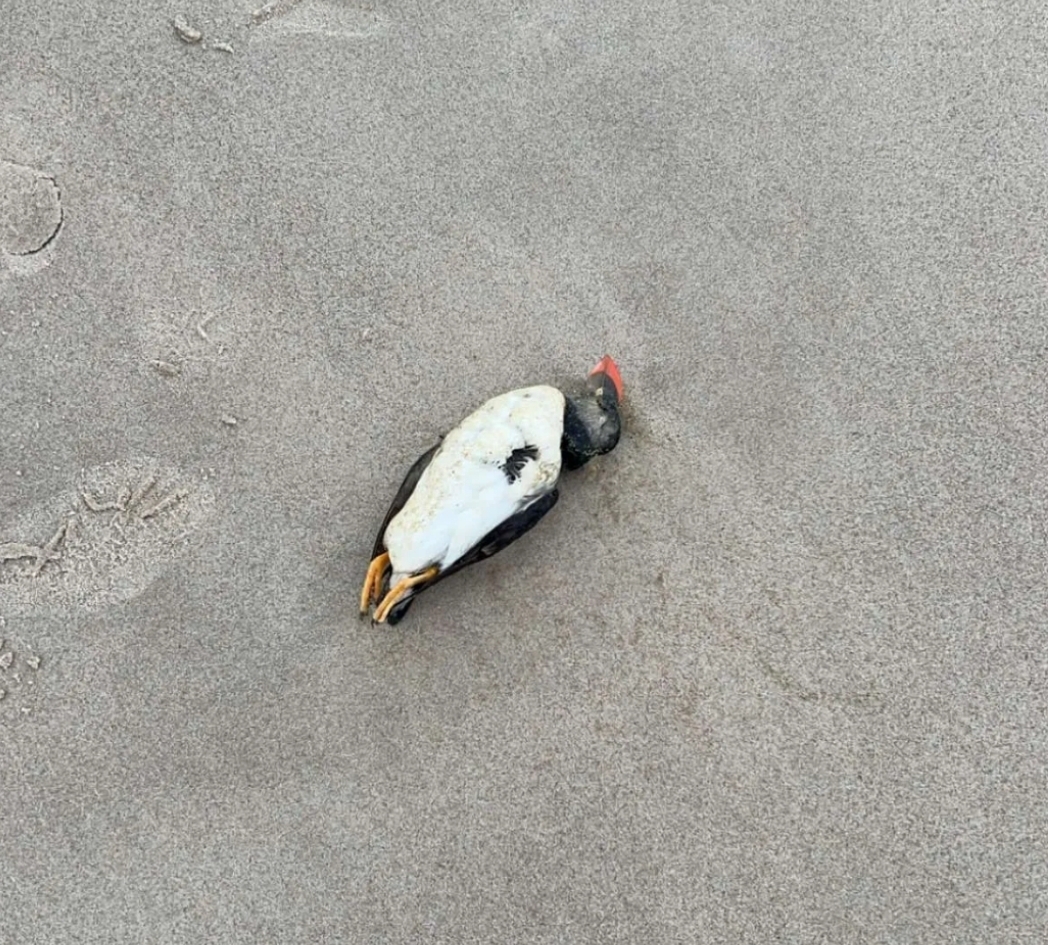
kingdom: Animalia
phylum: Chordata
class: Aves
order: Charadriiformes
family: Alcidae
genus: Fratercula
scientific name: Fratercula arctica
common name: Lunde
